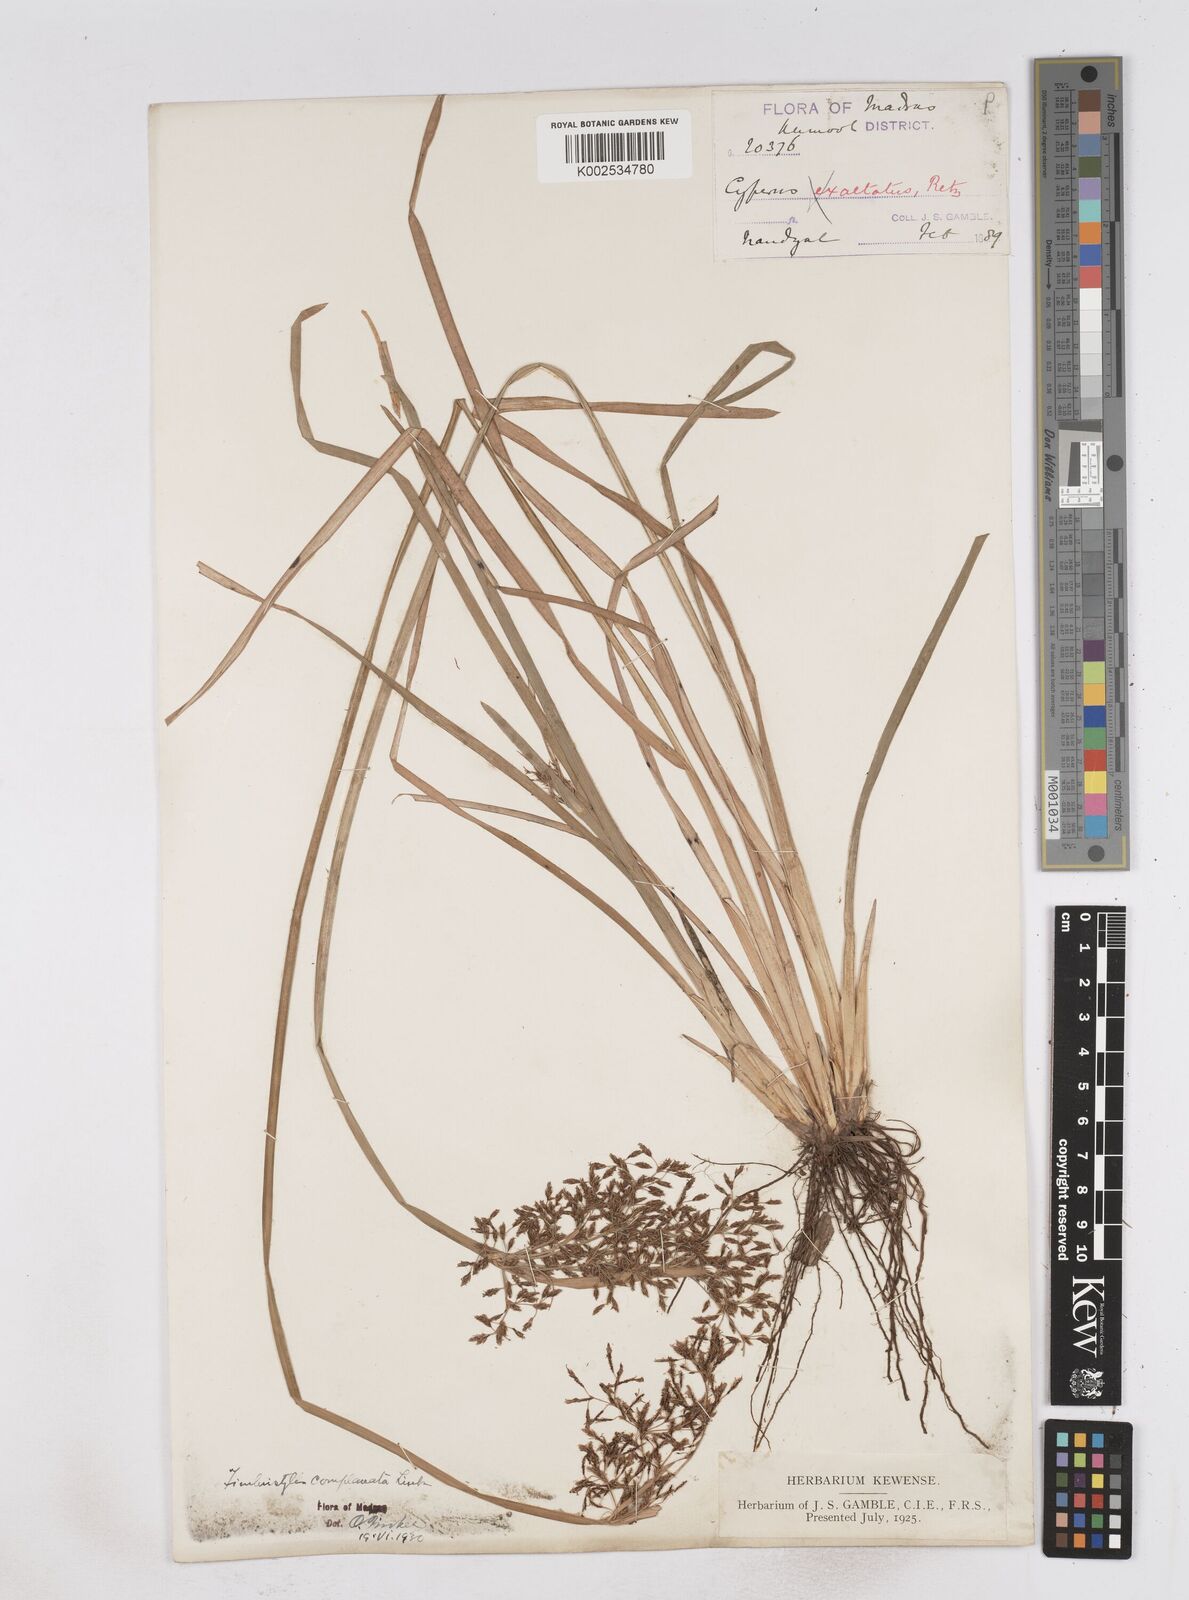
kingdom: Plantae
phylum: Tracheophyta
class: Liliopsida
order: Poales
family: Cyperaceae
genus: Fimbristylis
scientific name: Fimbristylis complanata
